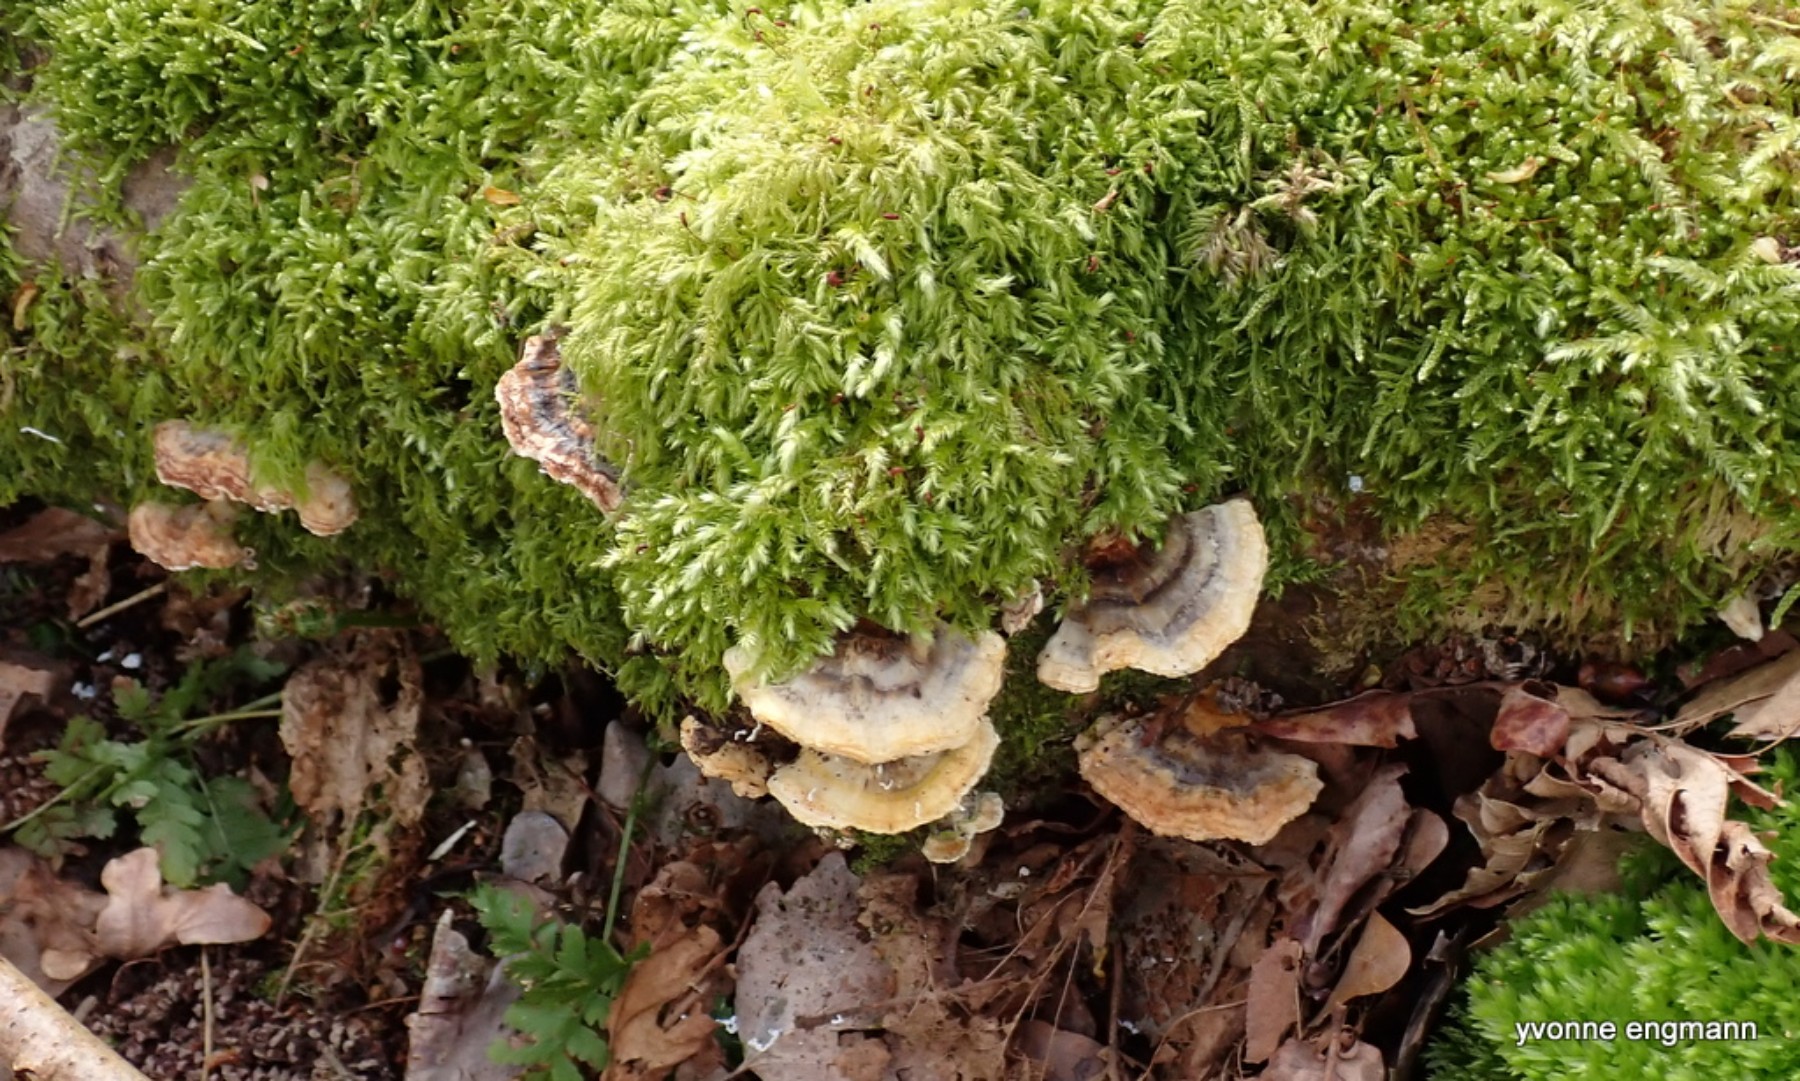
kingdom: Fungi
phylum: Basidiomycota
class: Agaricomycetes
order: Polyporales
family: Polyporaceae
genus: Trametes
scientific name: Trametes versicolor
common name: broget læderporesvamp
